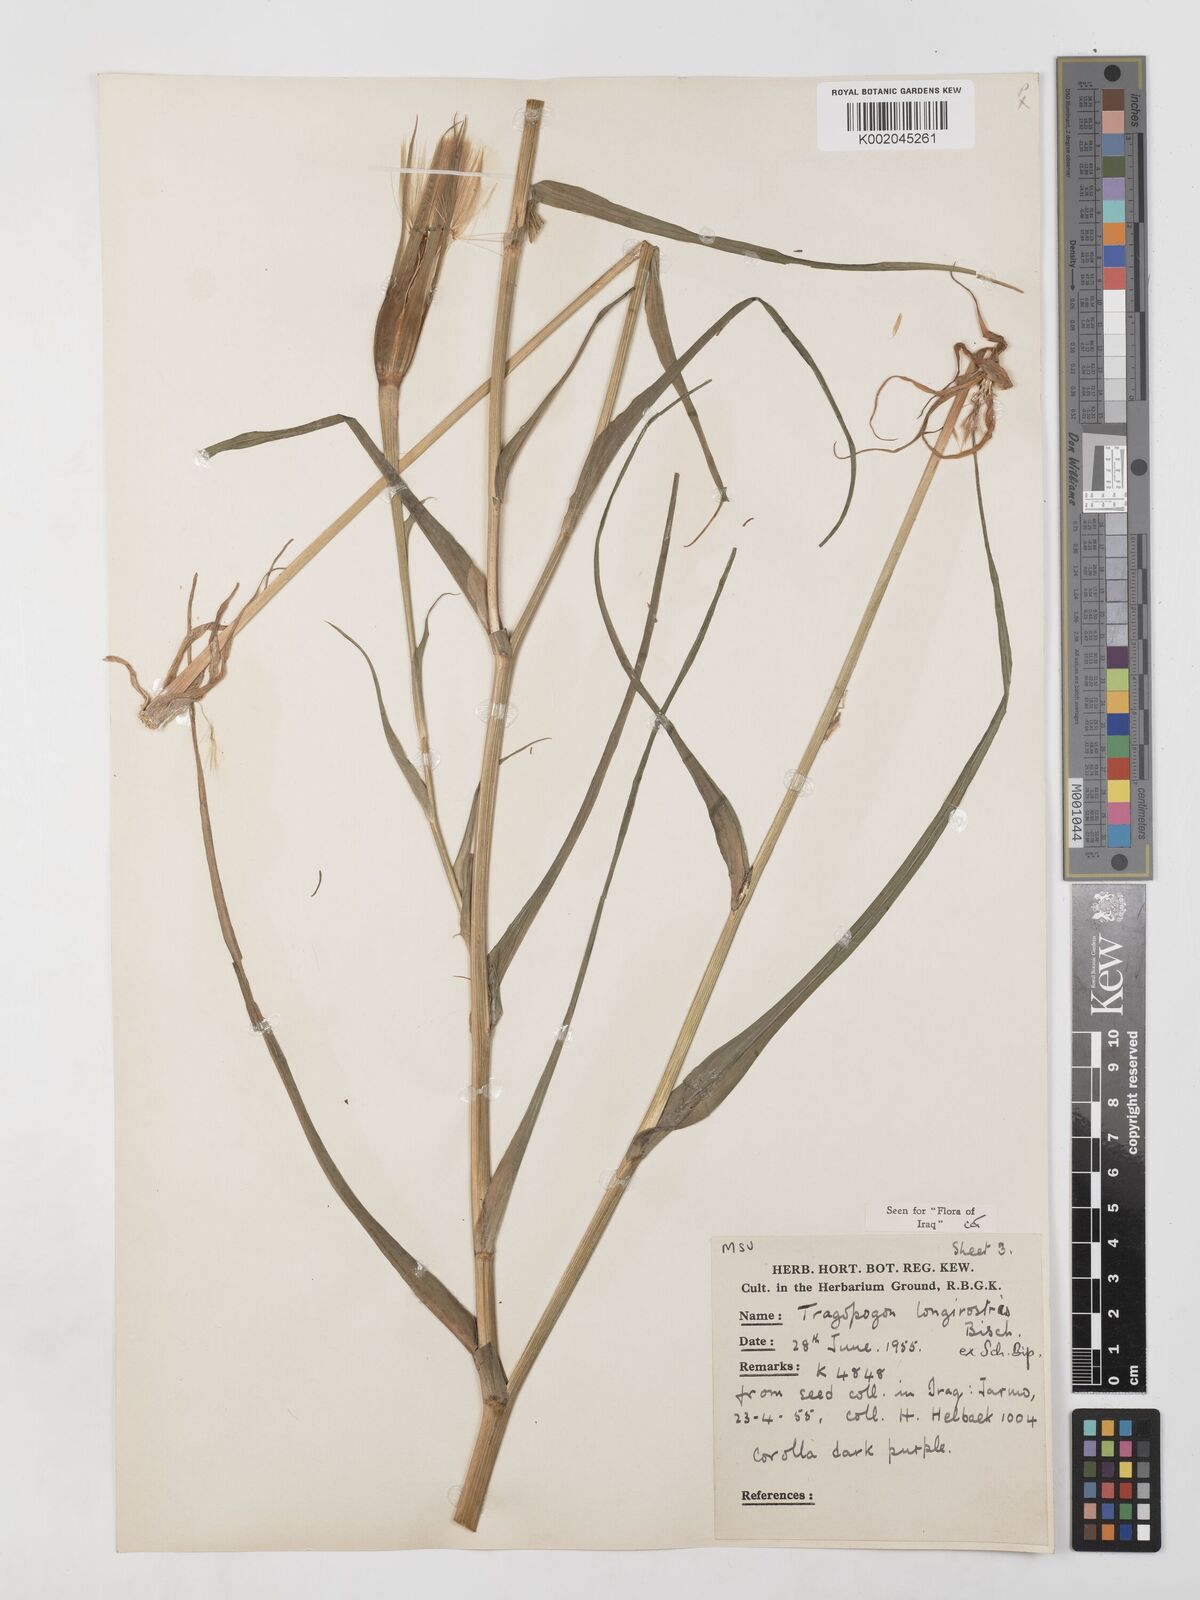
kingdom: Plantae
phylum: Tracheophyta
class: Magnoliopsida
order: Asterales
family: Asteraceae
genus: Tragopogon
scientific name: Tragopogon coelesyriacus
